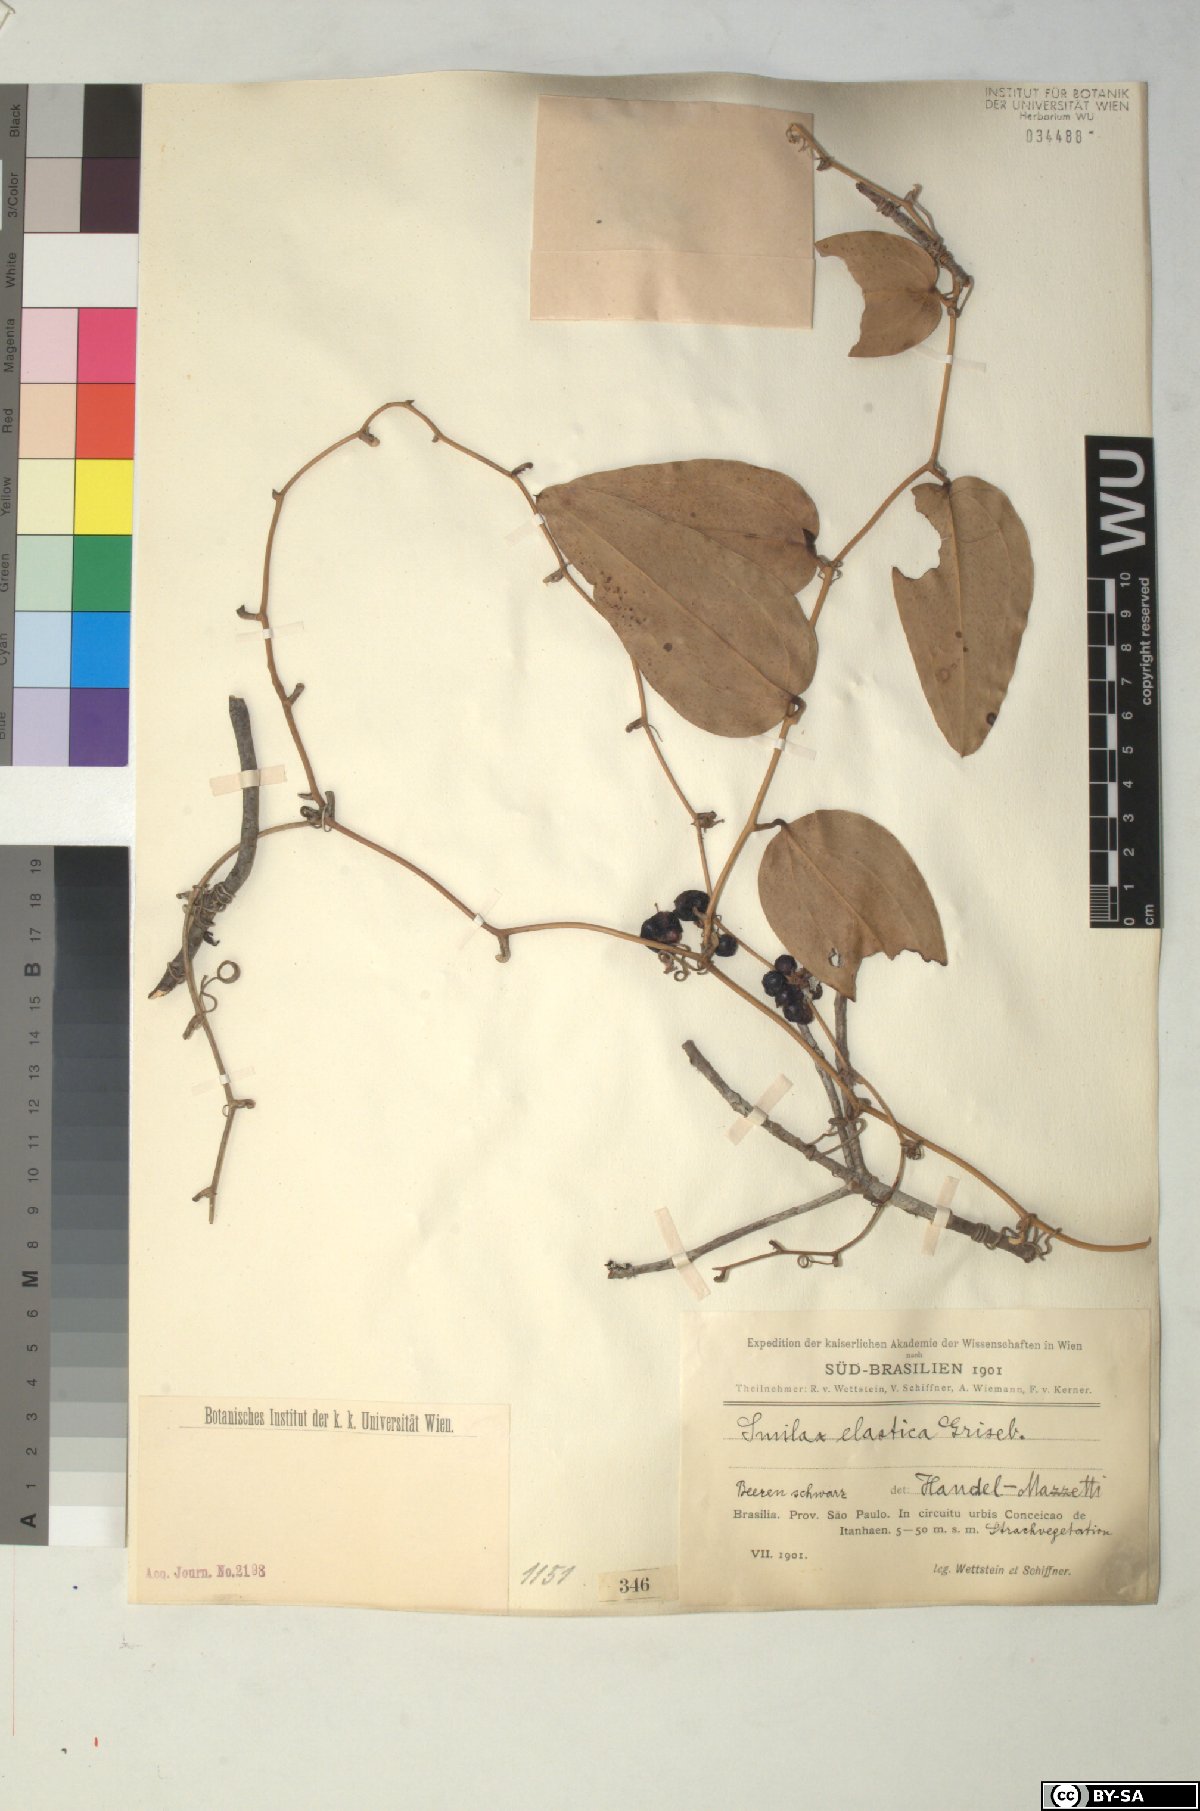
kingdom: Plantae
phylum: Tracheophyta
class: Liliopsida
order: Liliales
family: Smilacaceae
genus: Smilax
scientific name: Smilax elastica
